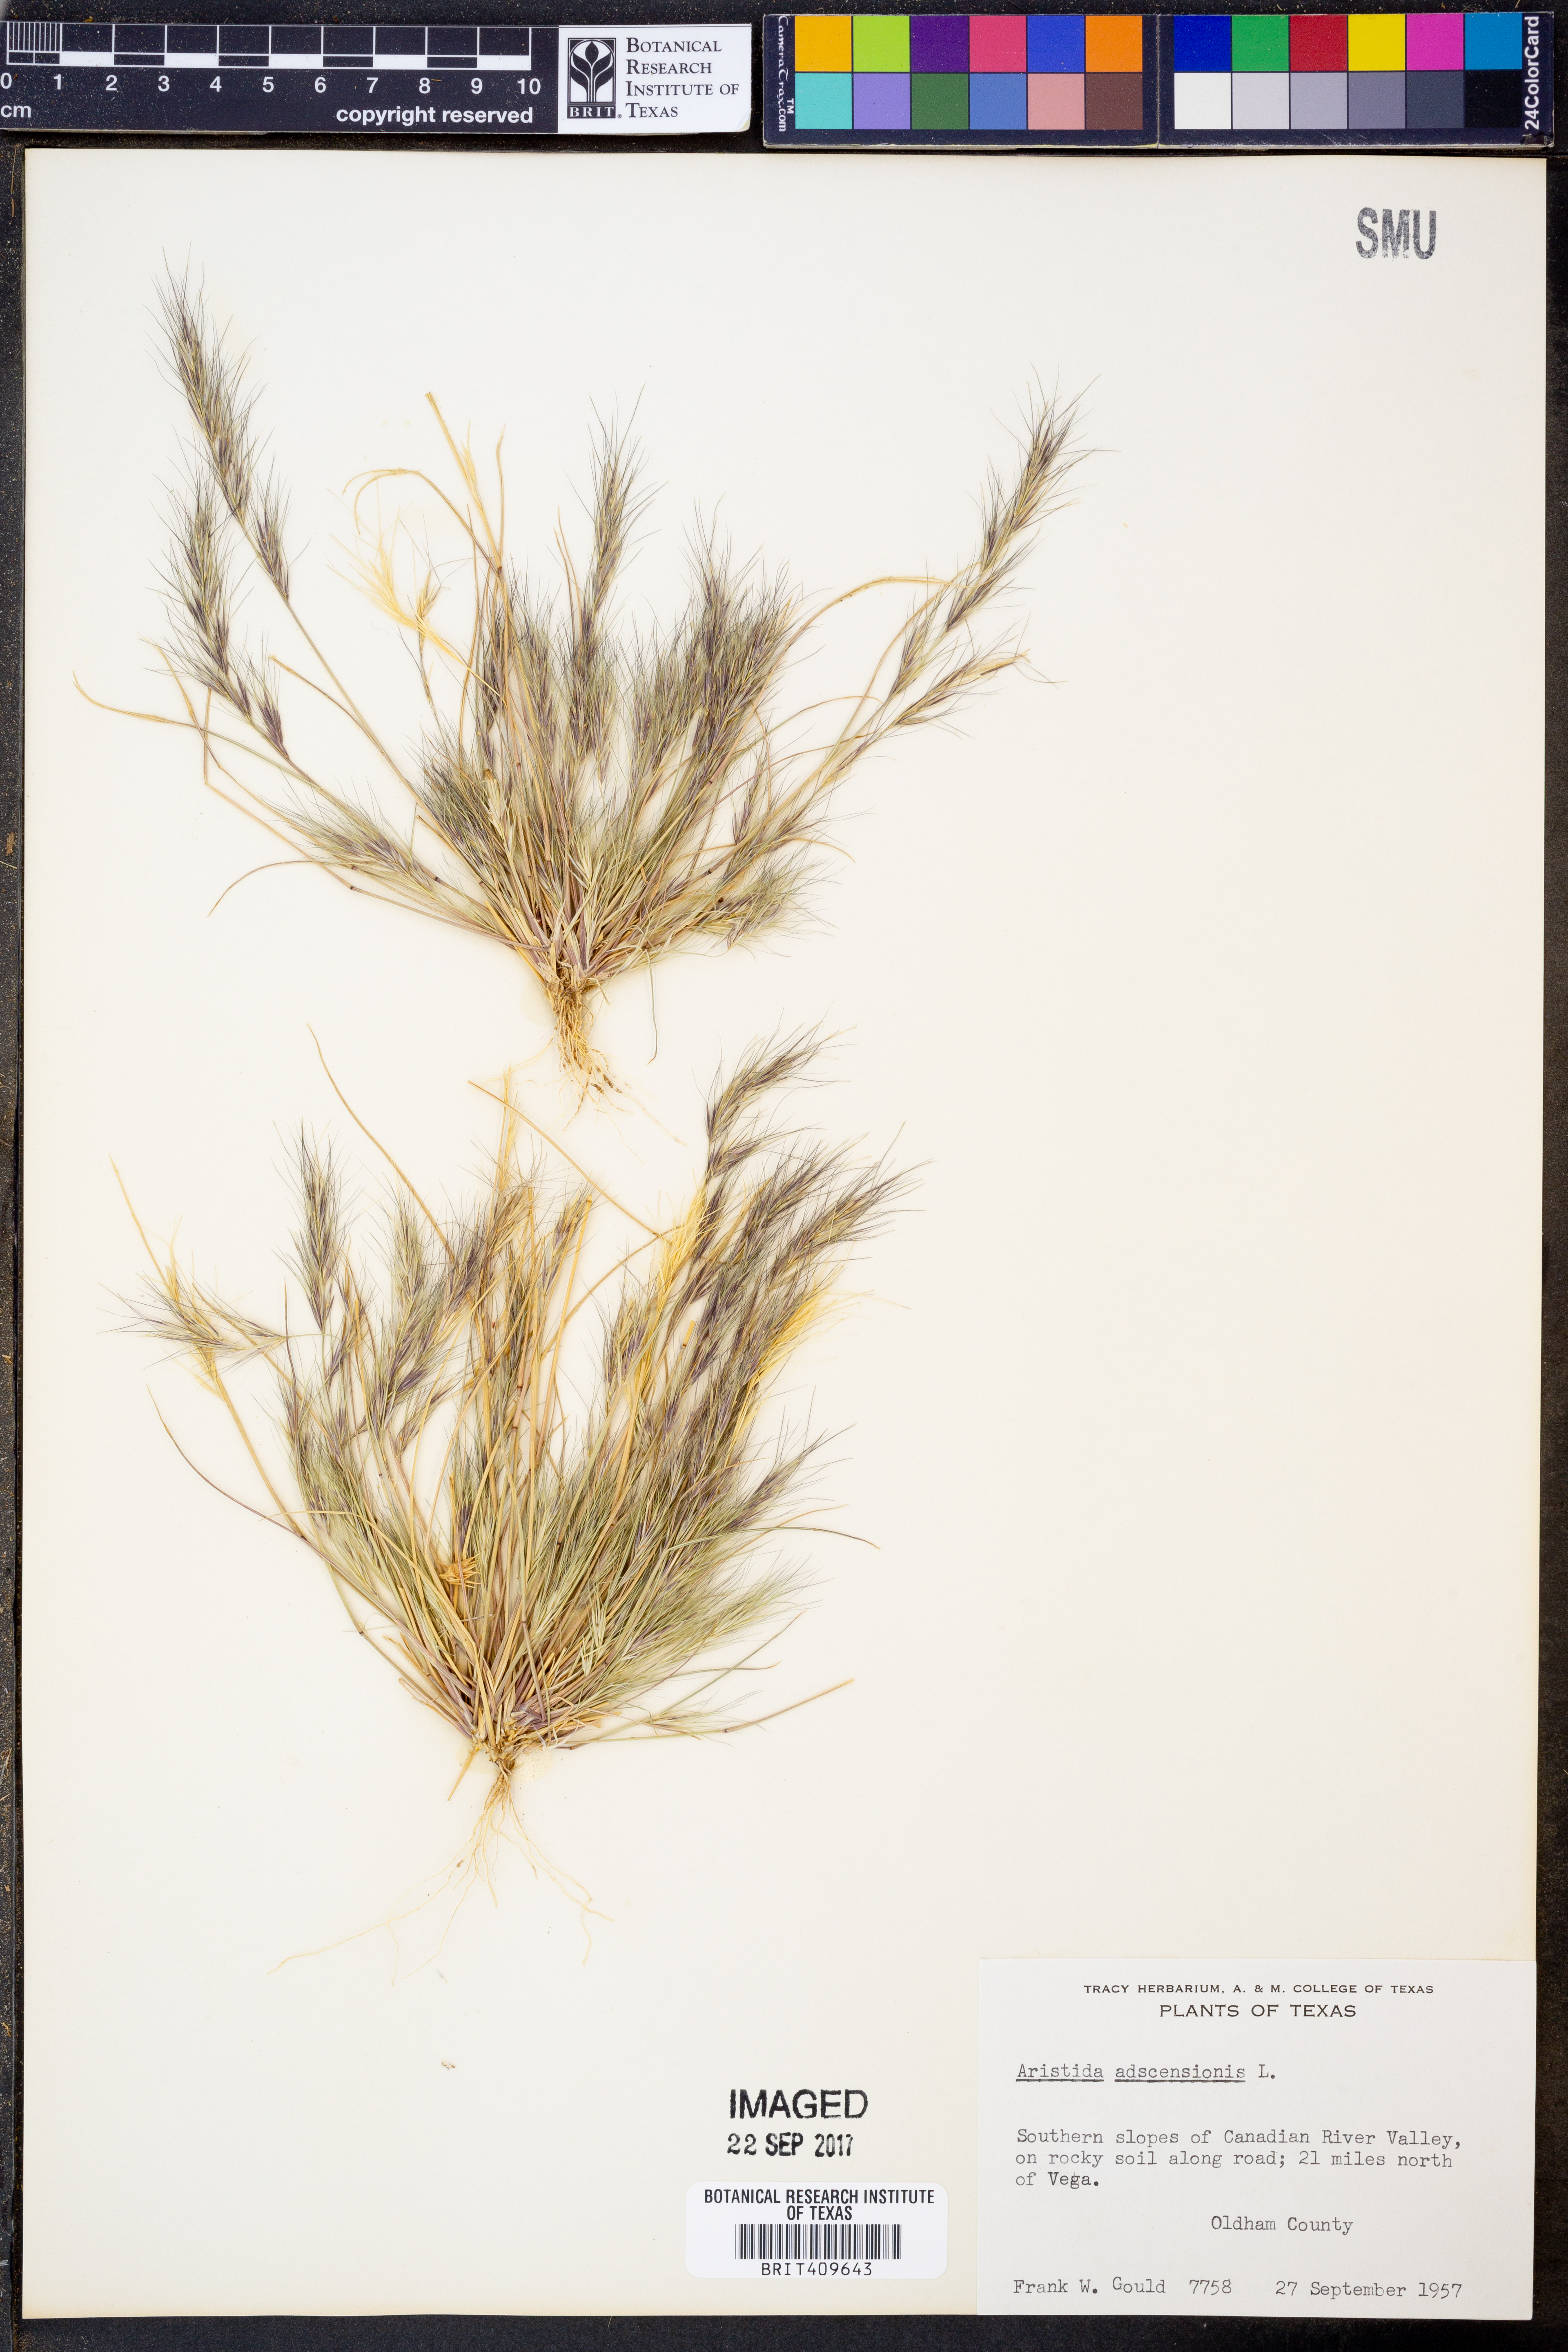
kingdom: Plantae
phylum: Tracheophyta
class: Liliopsida
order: Poales
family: Poaceae
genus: Aristida
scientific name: Aristida adscensionis
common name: Sixweeks threeawn
